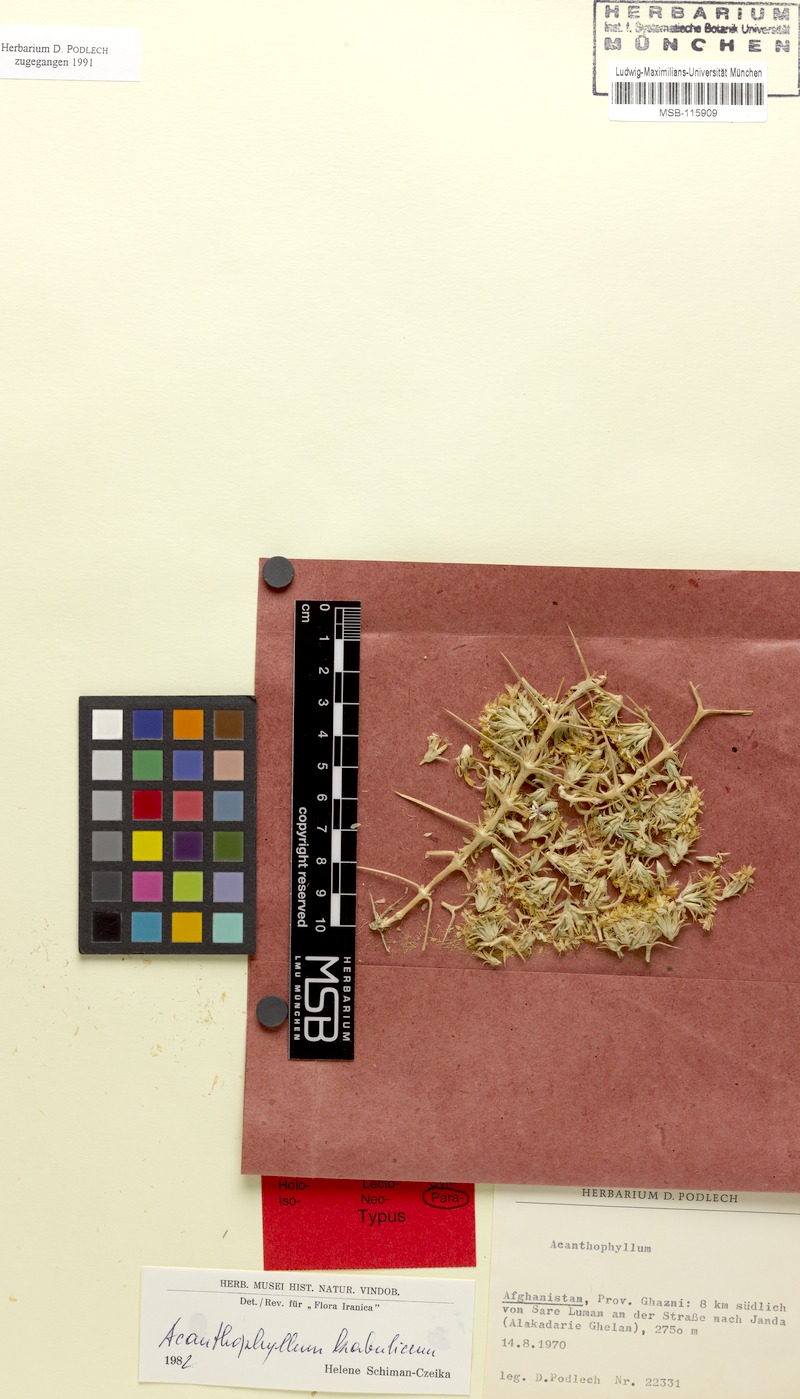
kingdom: Plantae
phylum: Tracheophyta
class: Magnoliopsida
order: Caryophyllales
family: Caryophyllaceae
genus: Acanthophyllum
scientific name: Acanthophyllum kabulicum
